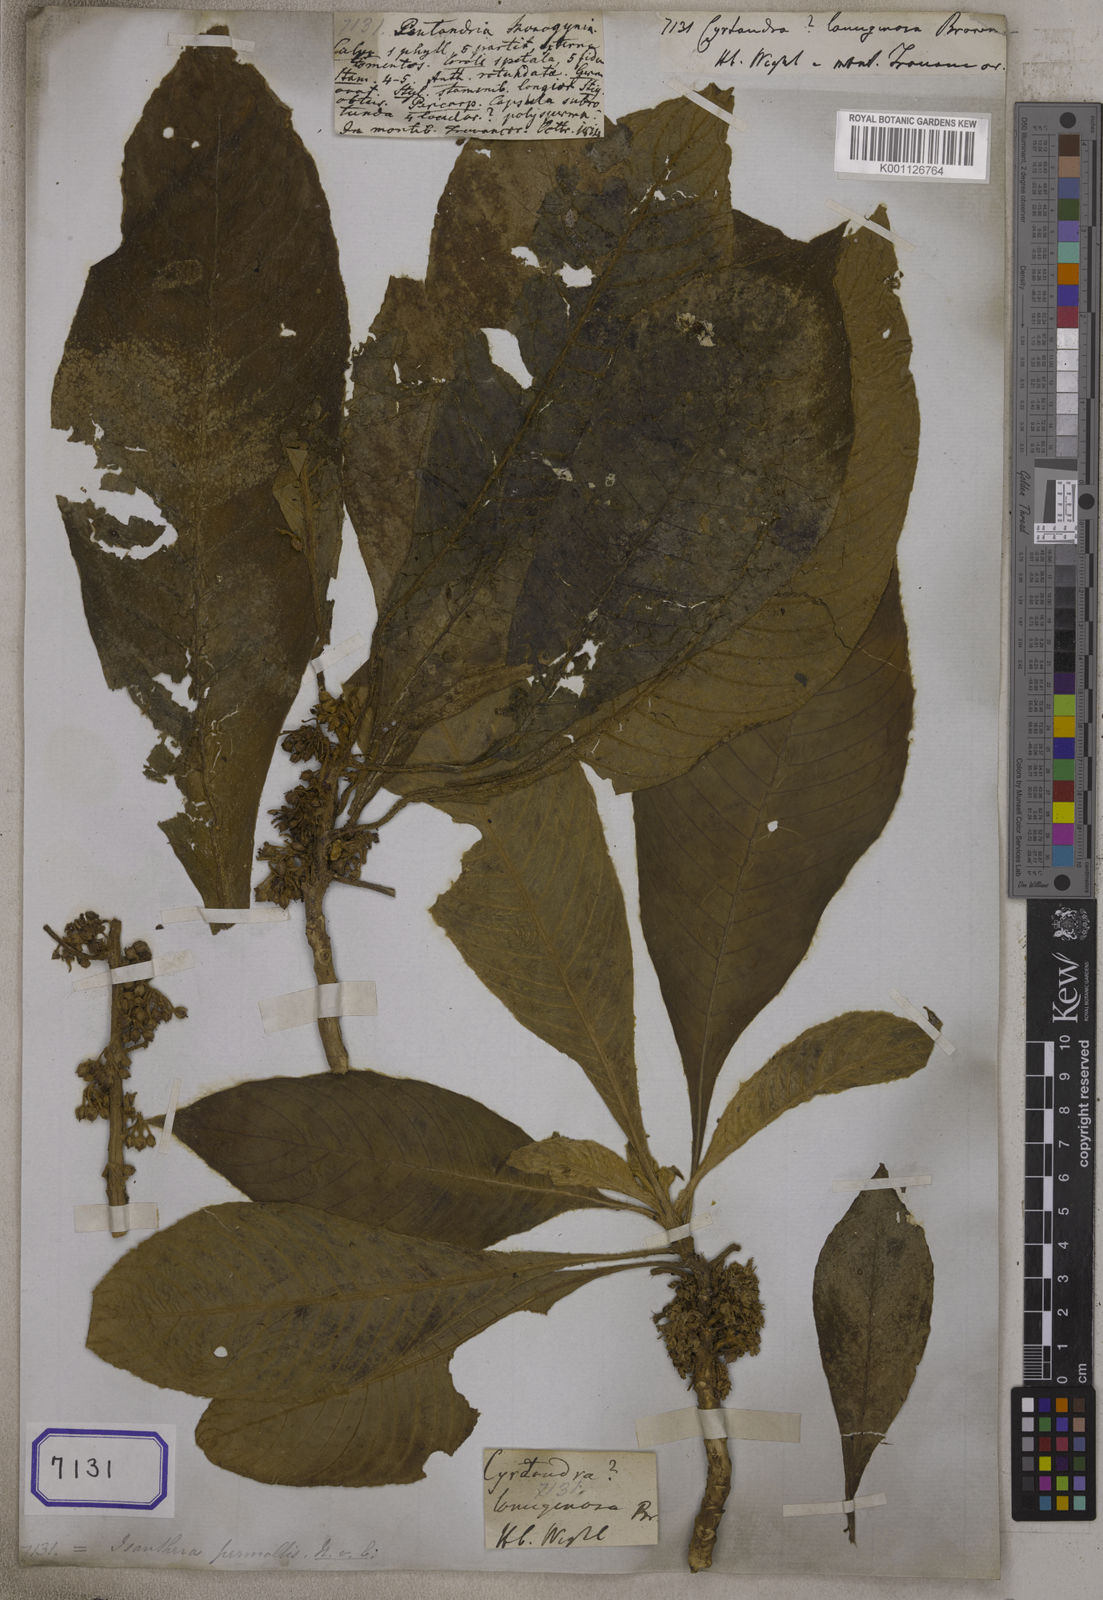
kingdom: Plantae
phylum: Tracheophyta
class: Magnoliopsida
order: Lamiales
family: Gesneriaceae
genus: Rhynchotechum
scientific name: Rhynchotechum permolle
